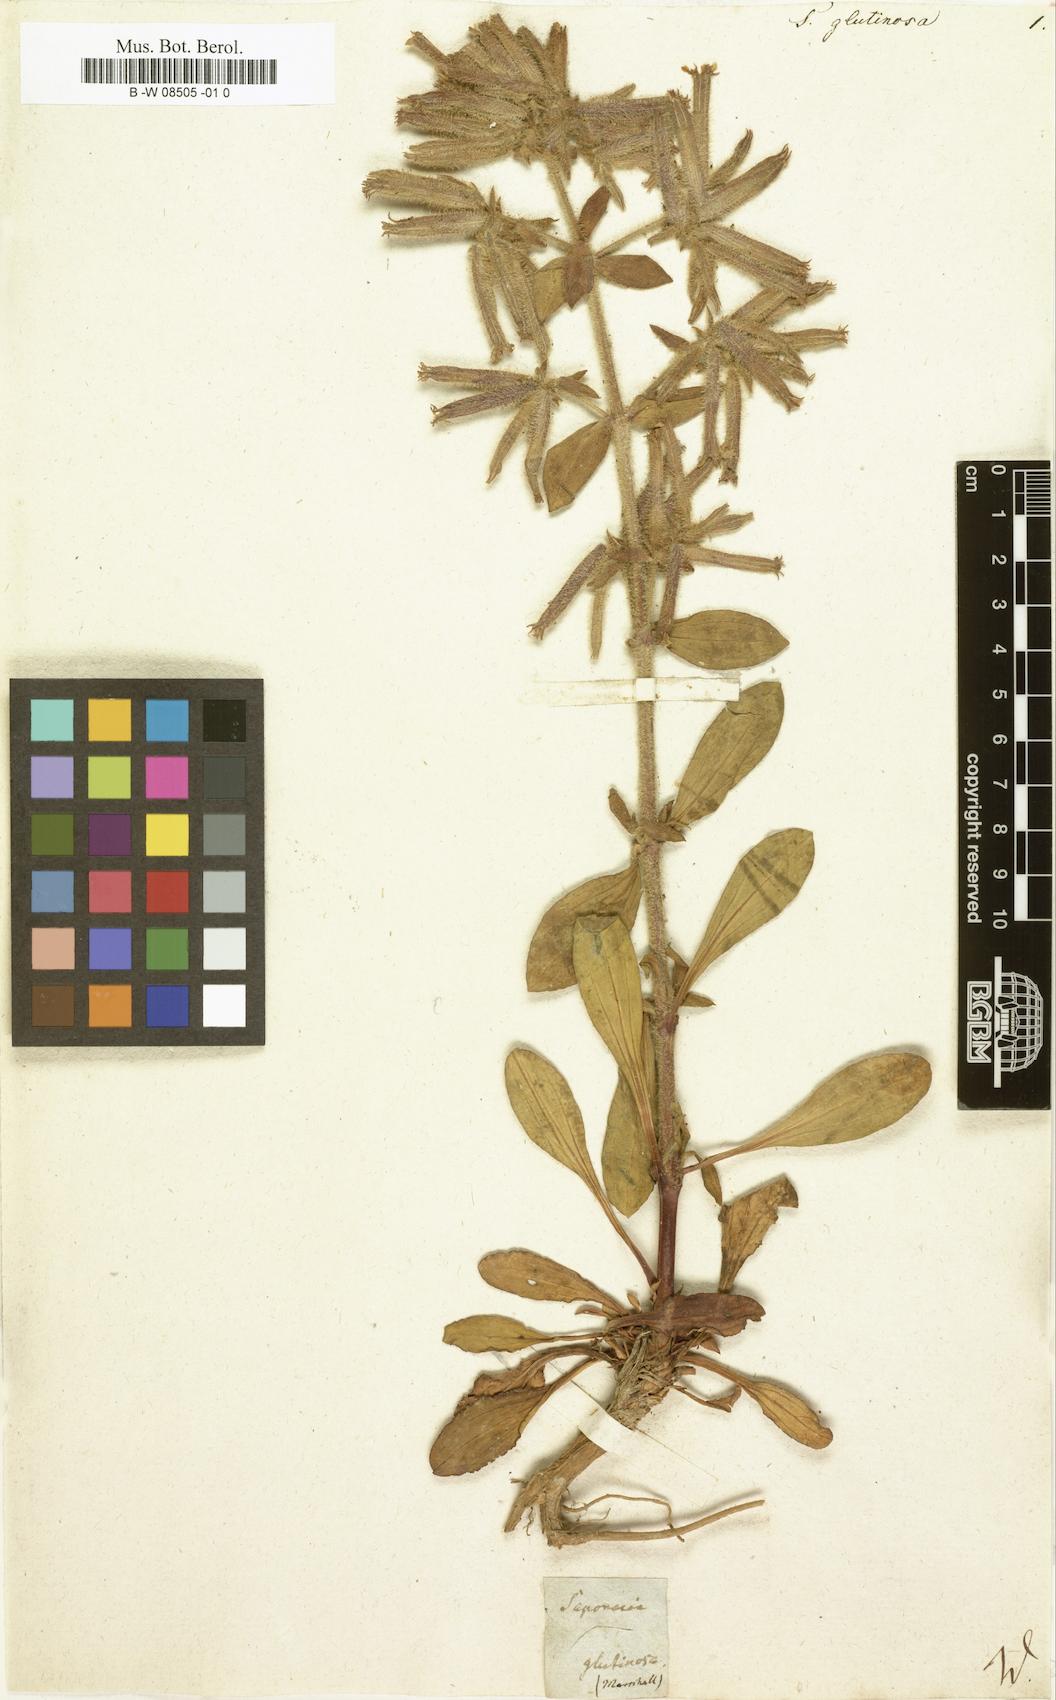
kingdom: Plantae
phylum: Tracheophyta
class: Magnoliopsida
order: Caryophyllales
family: Caryophyllaceae
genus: Saponaria
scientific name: Saponaria glutinosa
